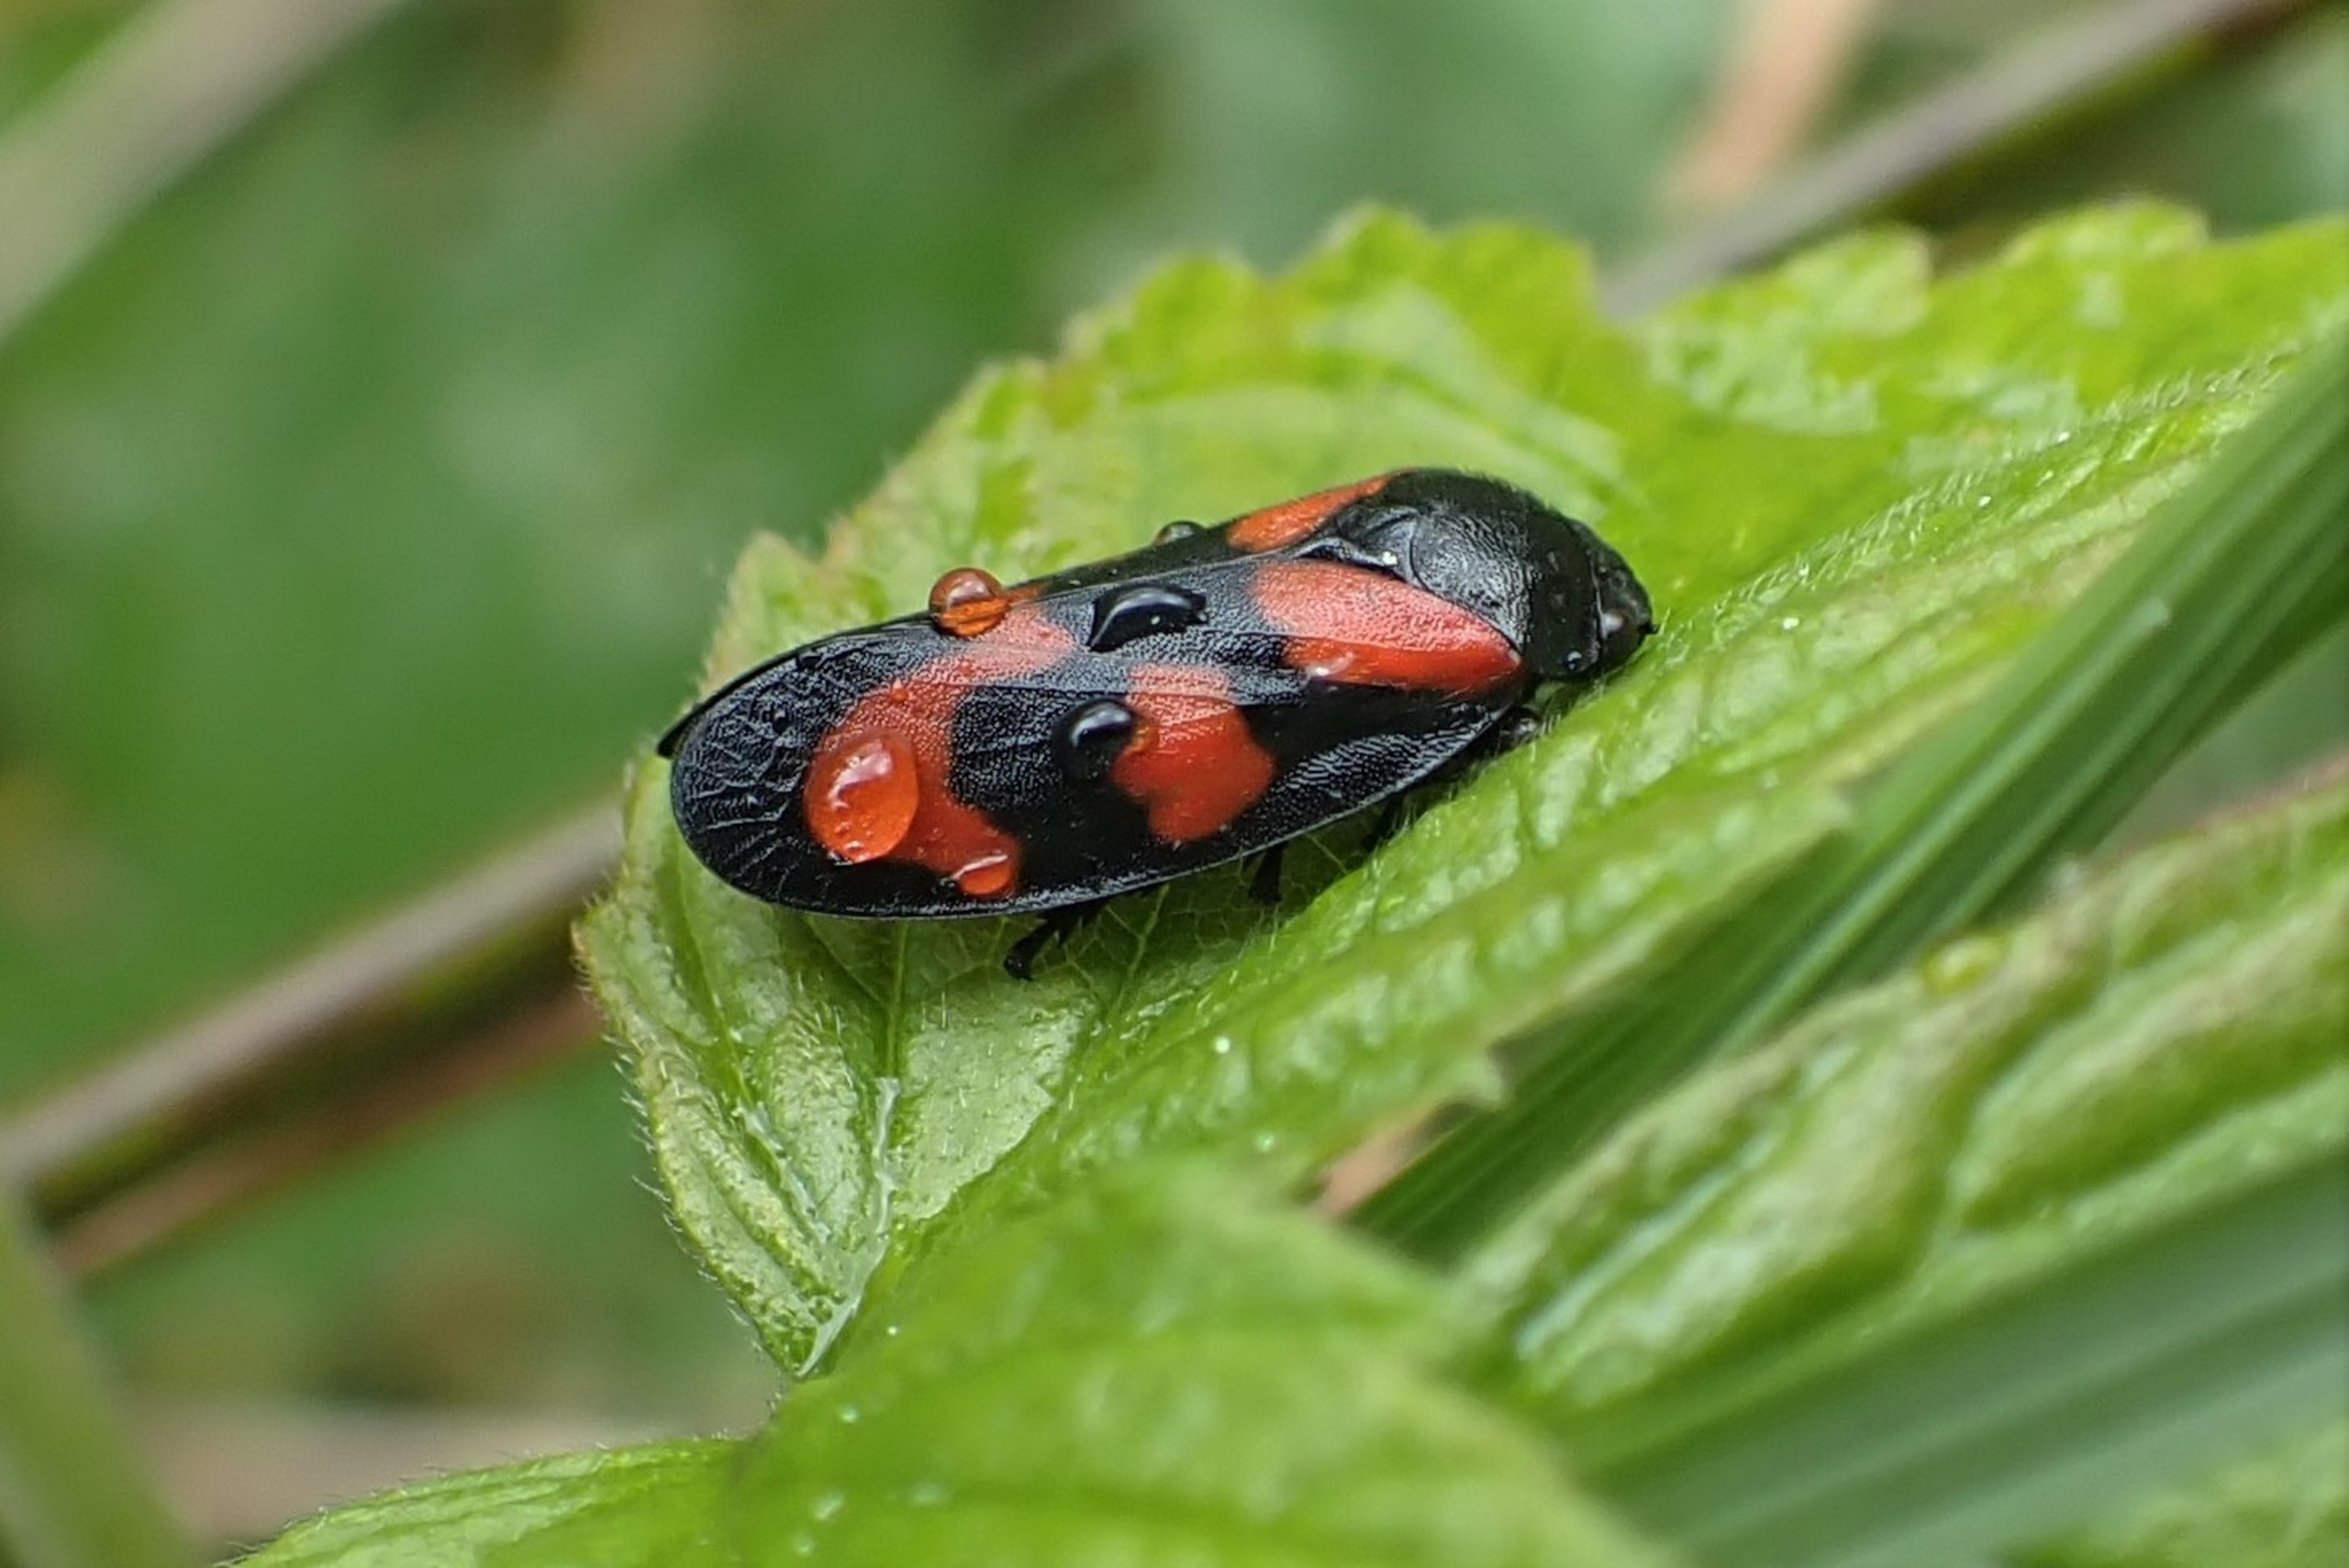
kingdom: Animalia
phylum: Arthropoda
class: Insecta
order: Hemiptera
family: Cercopidae
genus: Cercopis
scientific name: Cercopis vulnerata
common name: Blodcikade
